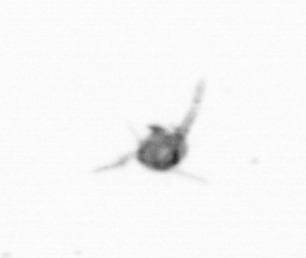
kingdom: Animalia
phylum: Arthropoda
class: Copepoda
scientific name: Copepoda
